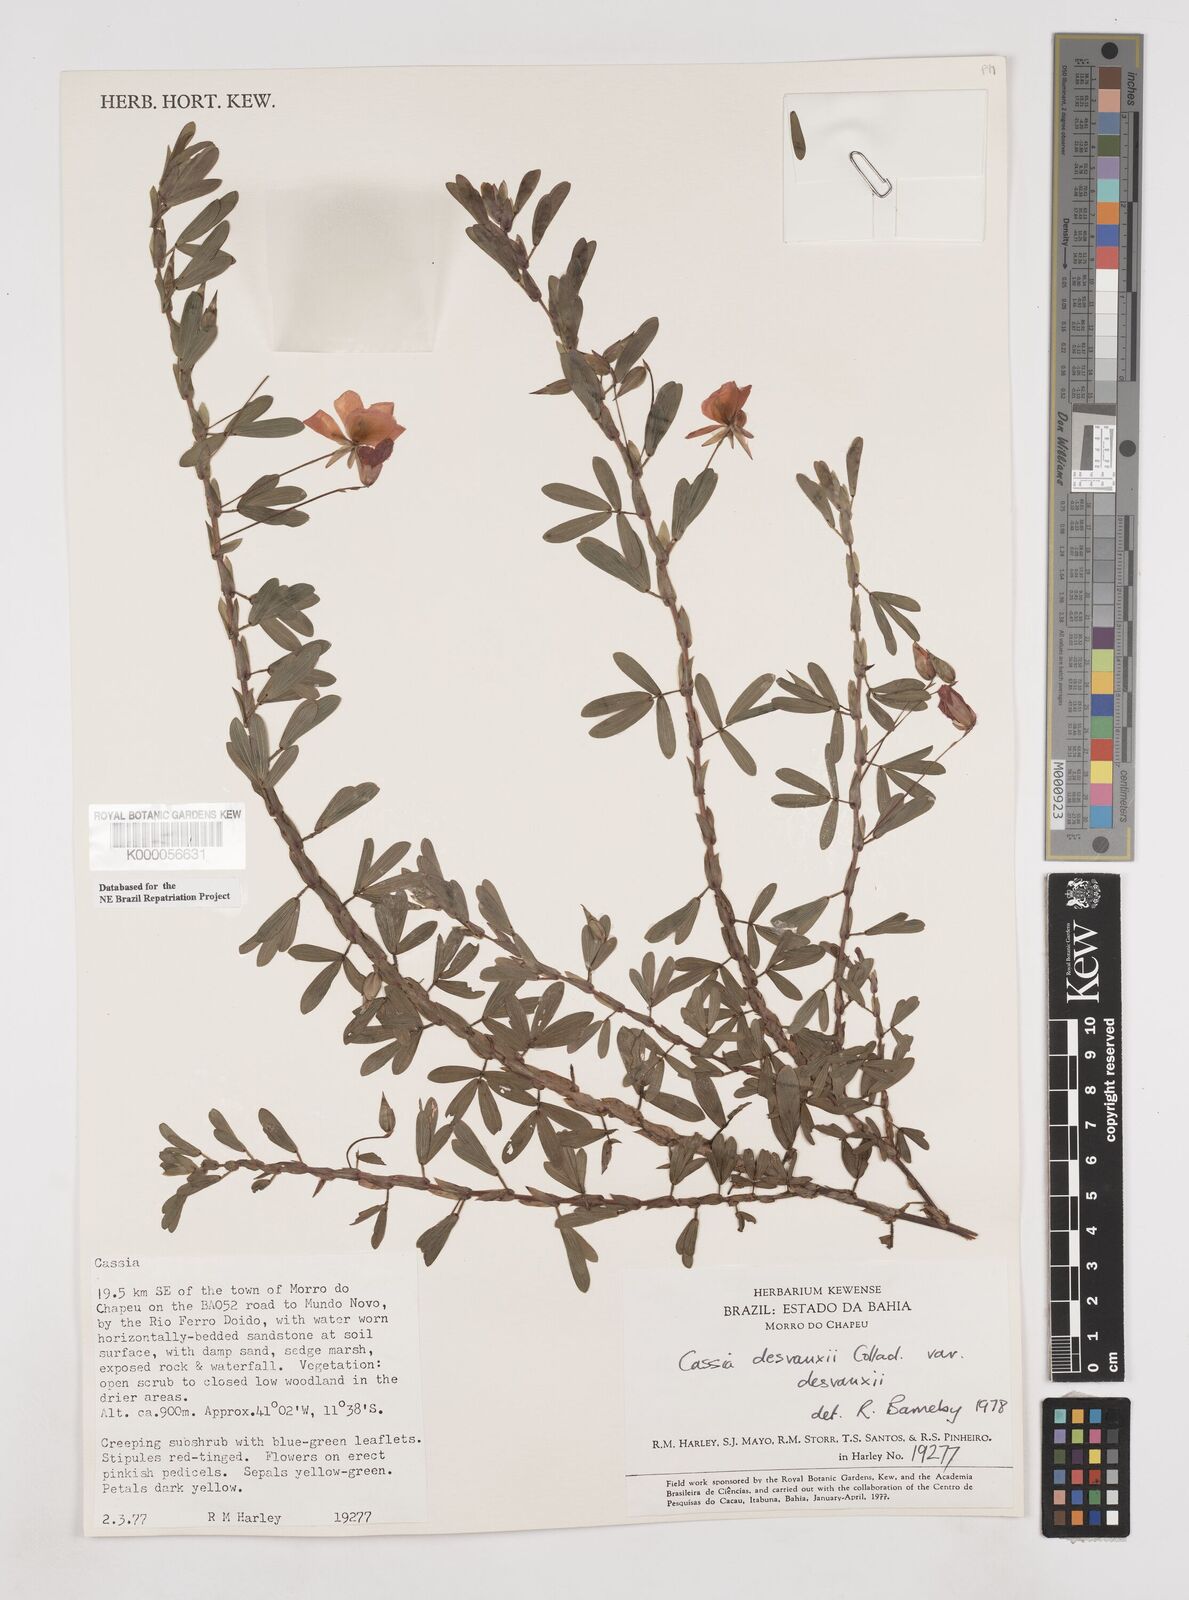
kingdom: Plantae
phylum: Tracheophyta
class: Magnoliopsida
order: Fabales
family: Fabaceae
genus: Chamaecrista
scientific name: Chamaecrista desvauxii
